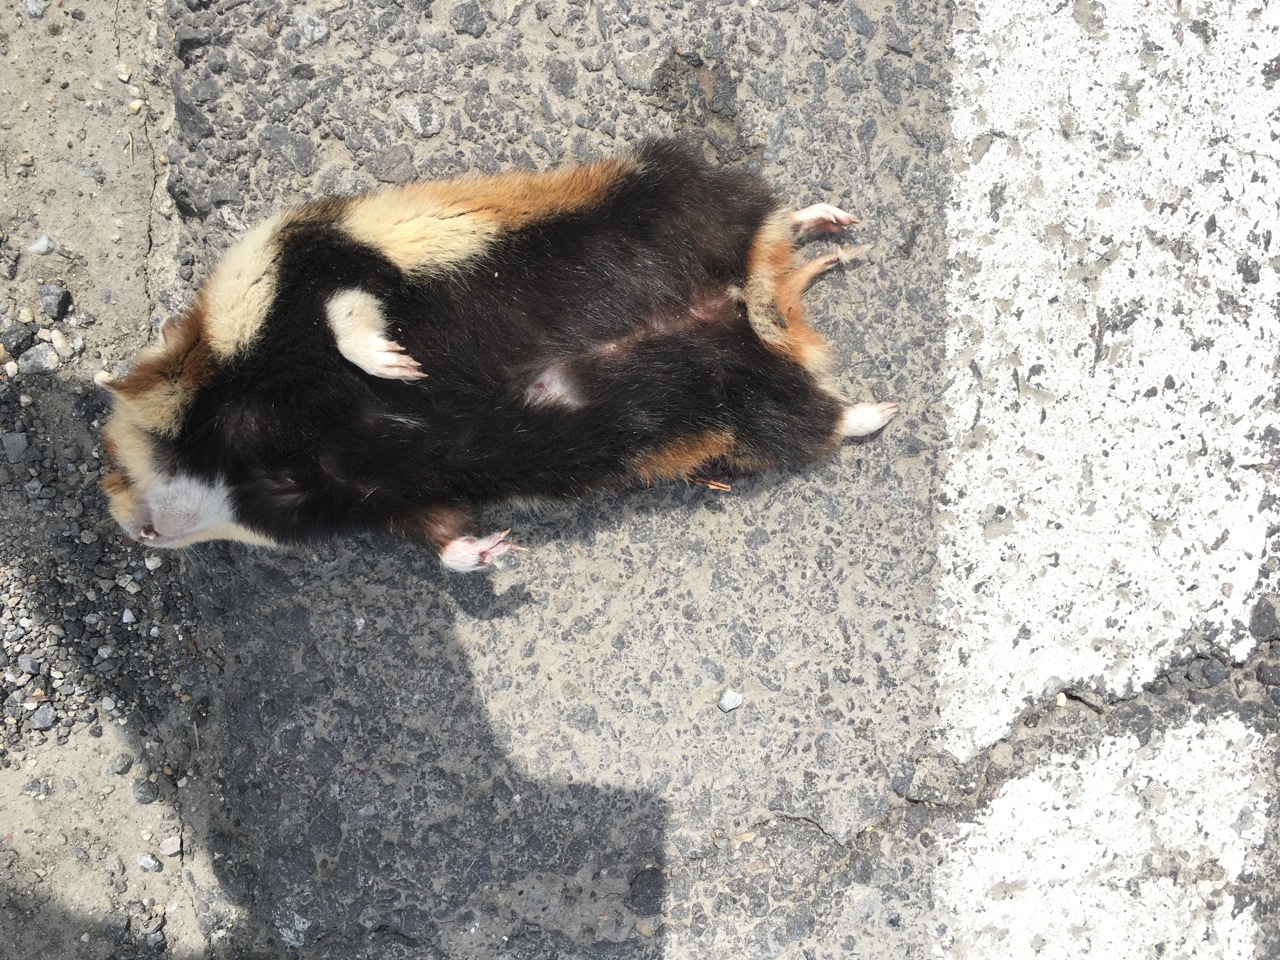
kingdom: Animalia
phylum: Chordata
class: Mammalia
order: Rodentia
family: Cricetidae
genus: Cricetus
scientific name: Cricetus cricetus
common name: Common hamster
